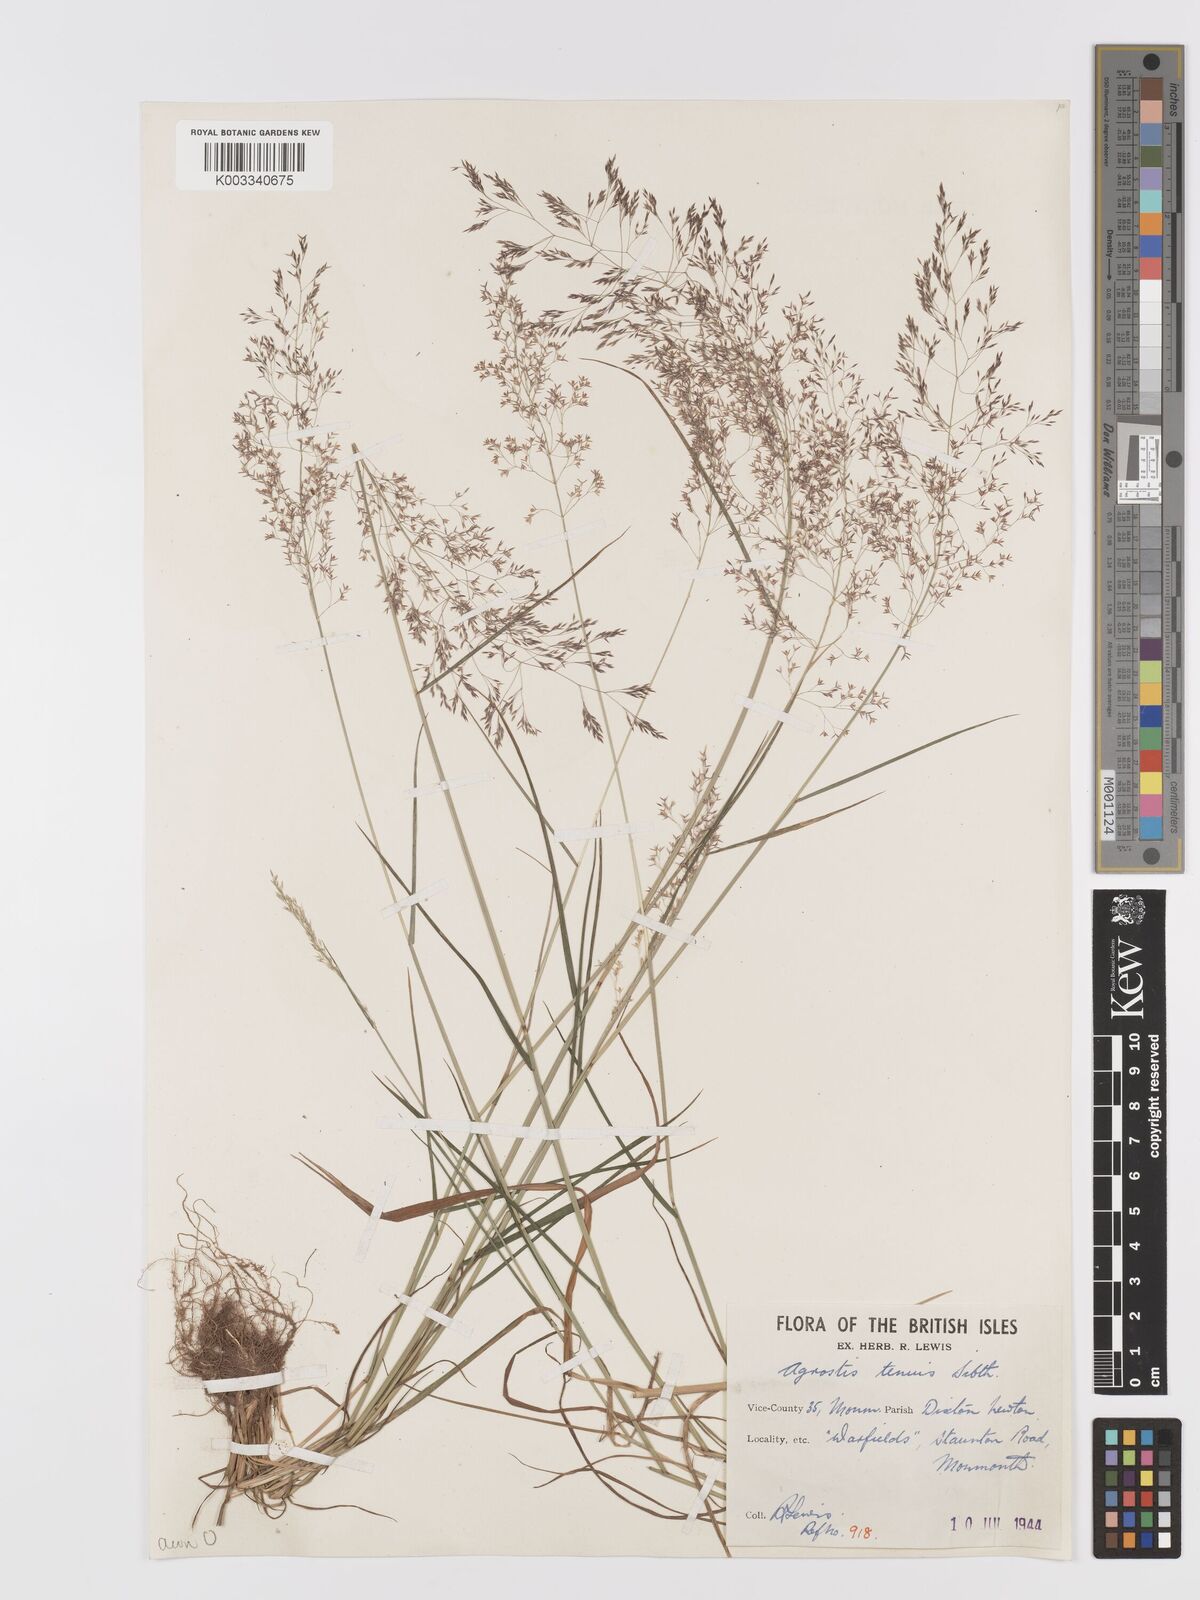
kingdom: Plantae
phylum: Tracheophyta
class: Liliopsida
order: Poales
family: Poaceae
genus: Agrostis
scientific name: Agrostis capillaris
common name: Colonial bentgrass
